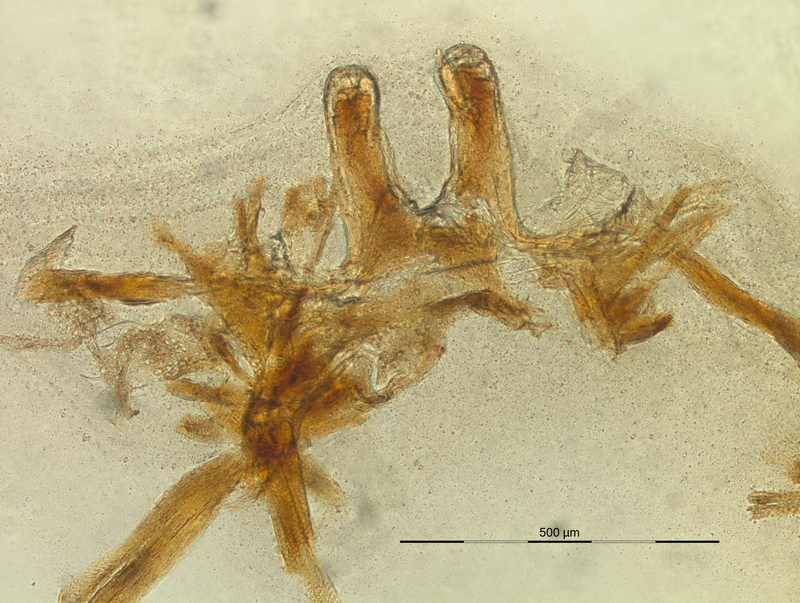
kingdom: Animalia
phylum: Arthropoda
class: Diplopoda
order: Chordeumatida
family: Craspedosomatidae
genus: Listrocheiritium
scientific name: Listrocheiritium noricum
